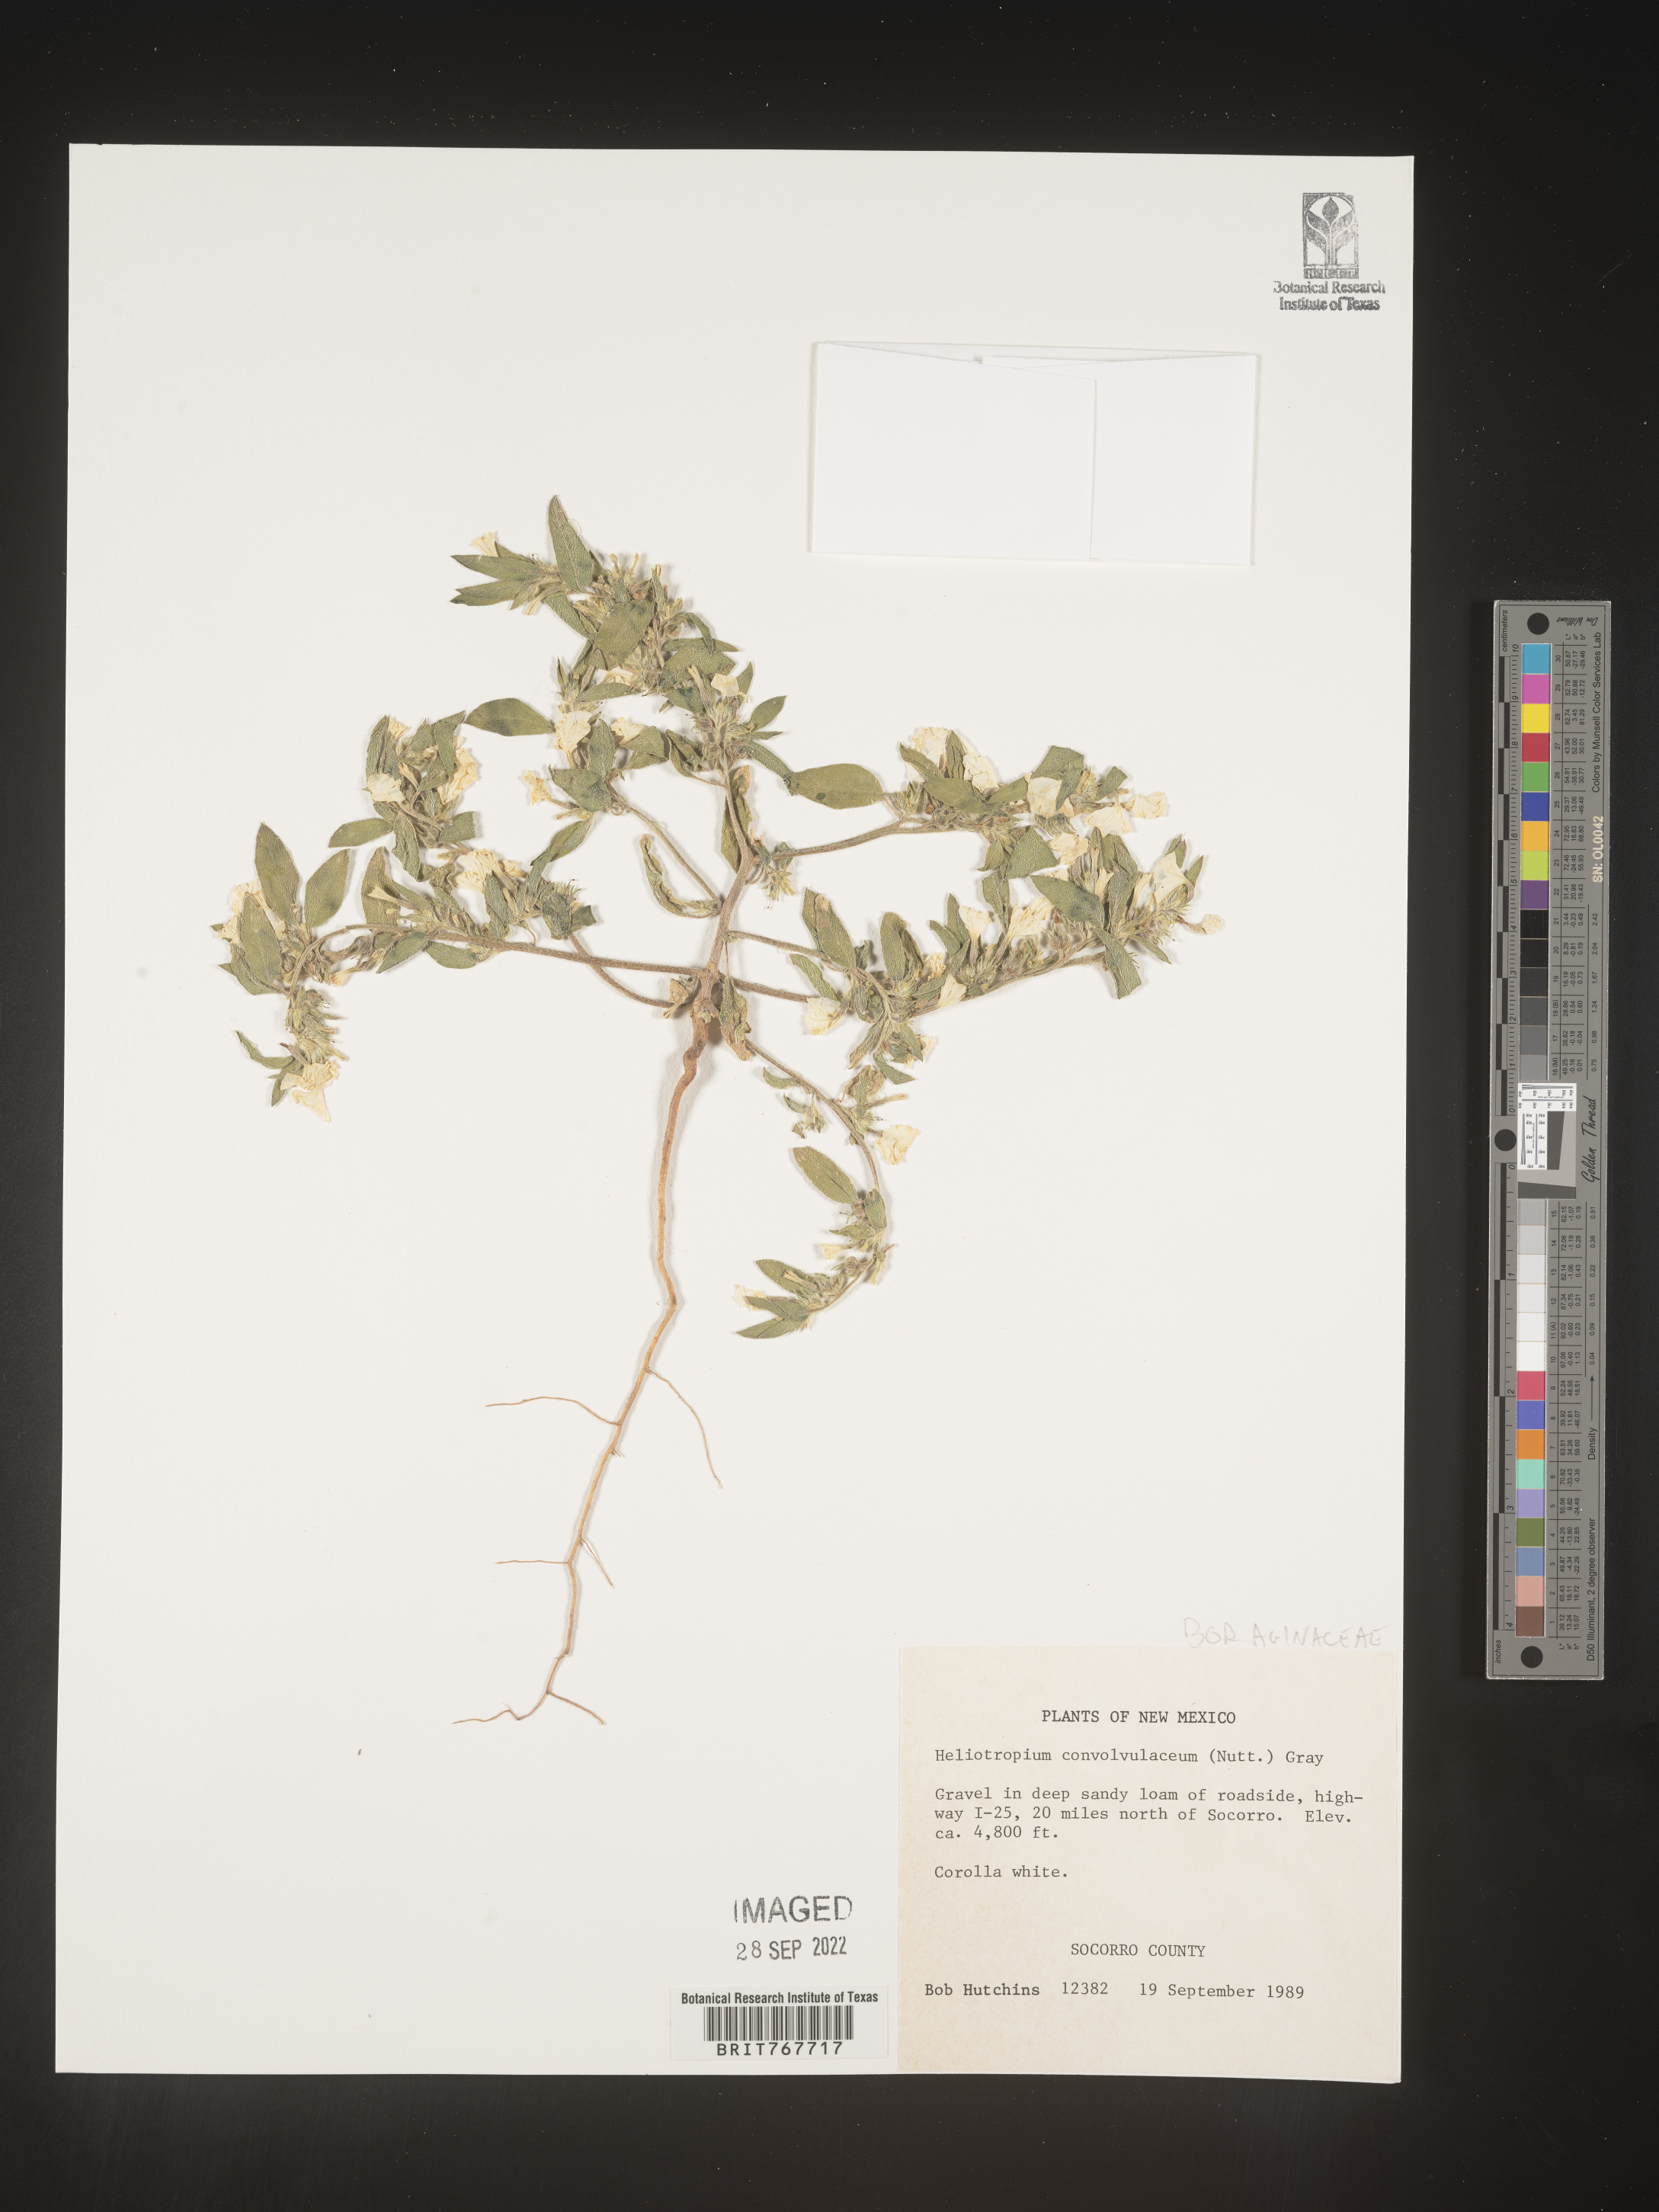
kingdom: Plantae
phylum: Tracheophyta
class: Magnoliopsida
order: Boraginales
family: Heliotropiaceae
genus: Heliotropium
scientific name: Heliotropium
